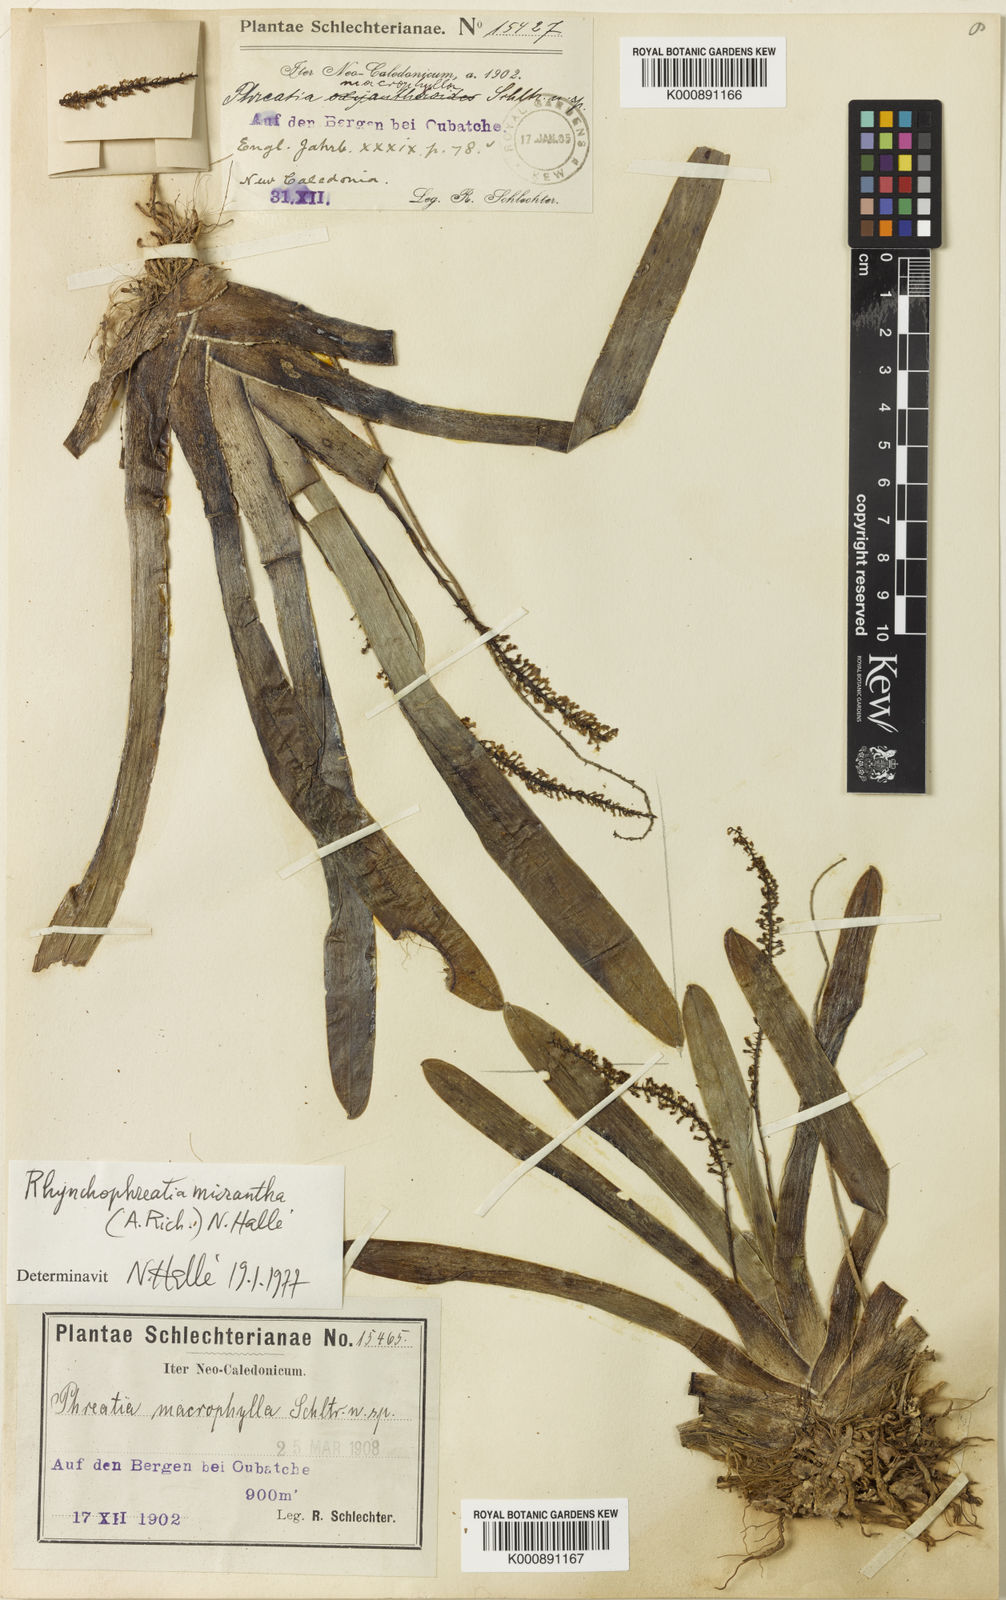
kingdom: Plantae
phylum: Tracheophyta
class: Liliopsida
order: Asparagales
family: Orchidaceae
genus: Phreatia
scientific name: Phreatia vanimoana
